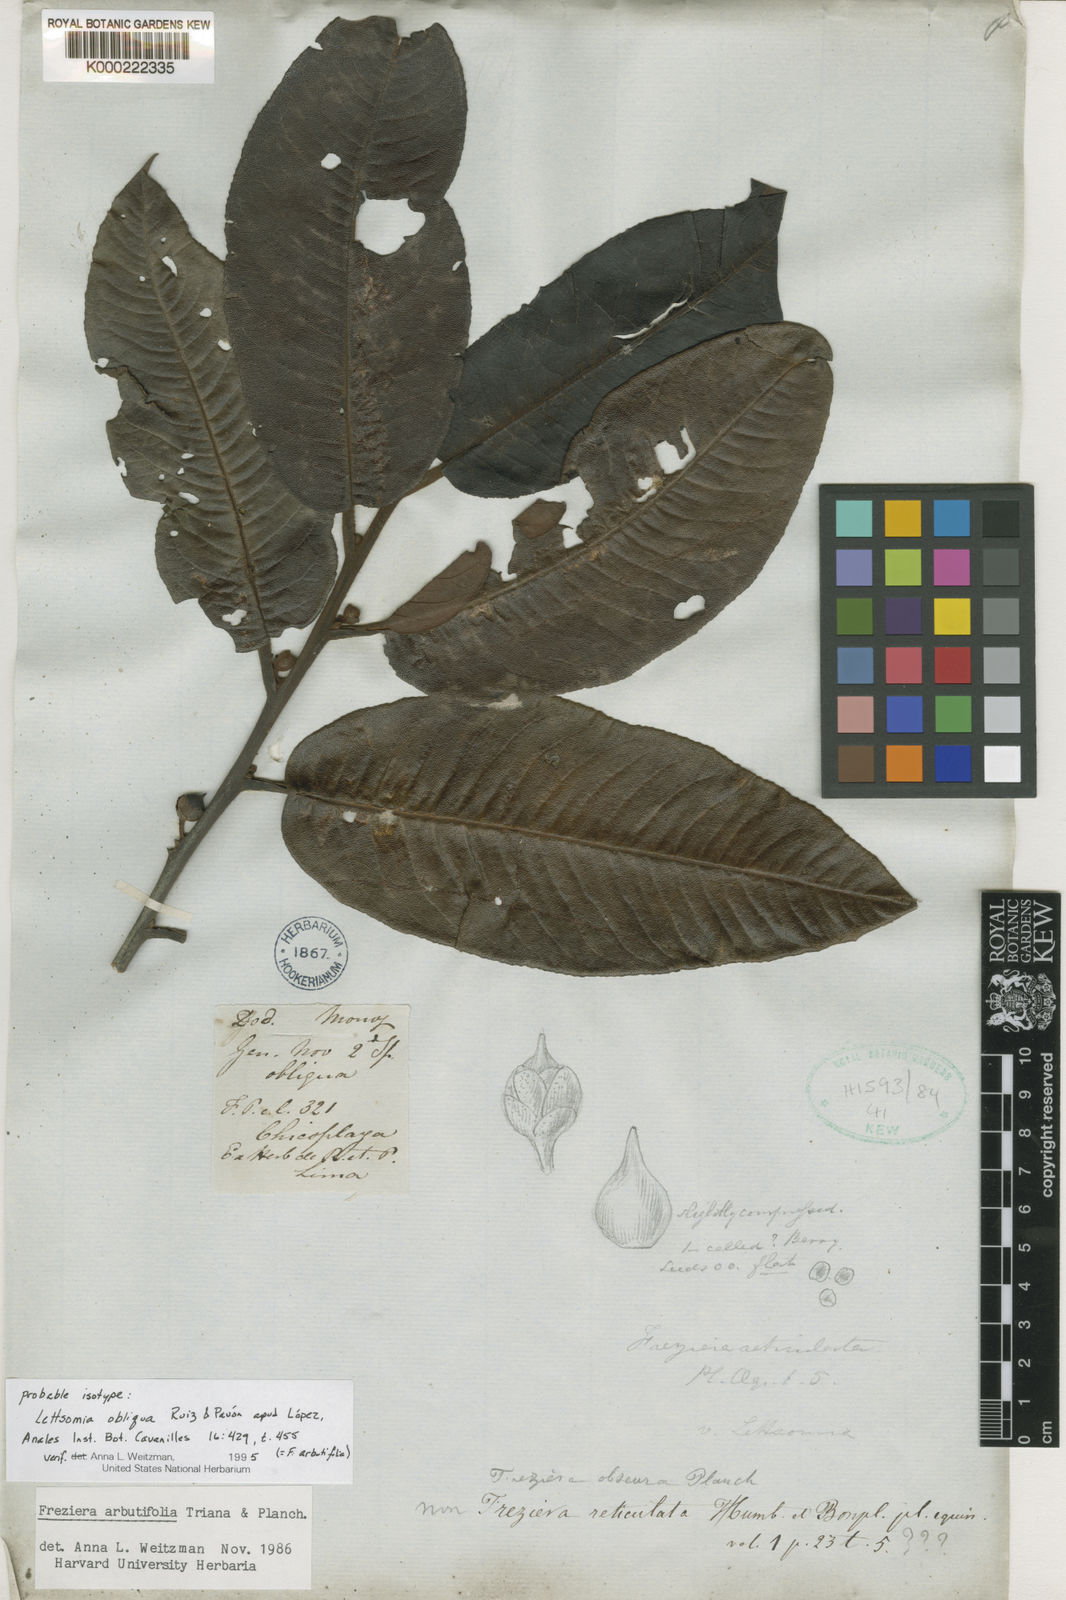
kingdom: Plantae
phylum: Tracheophyta
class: Magnoliopsida
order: Ericales
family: Pentaphylacaceae
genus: Freziera
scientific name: Freziera arbutifolia
